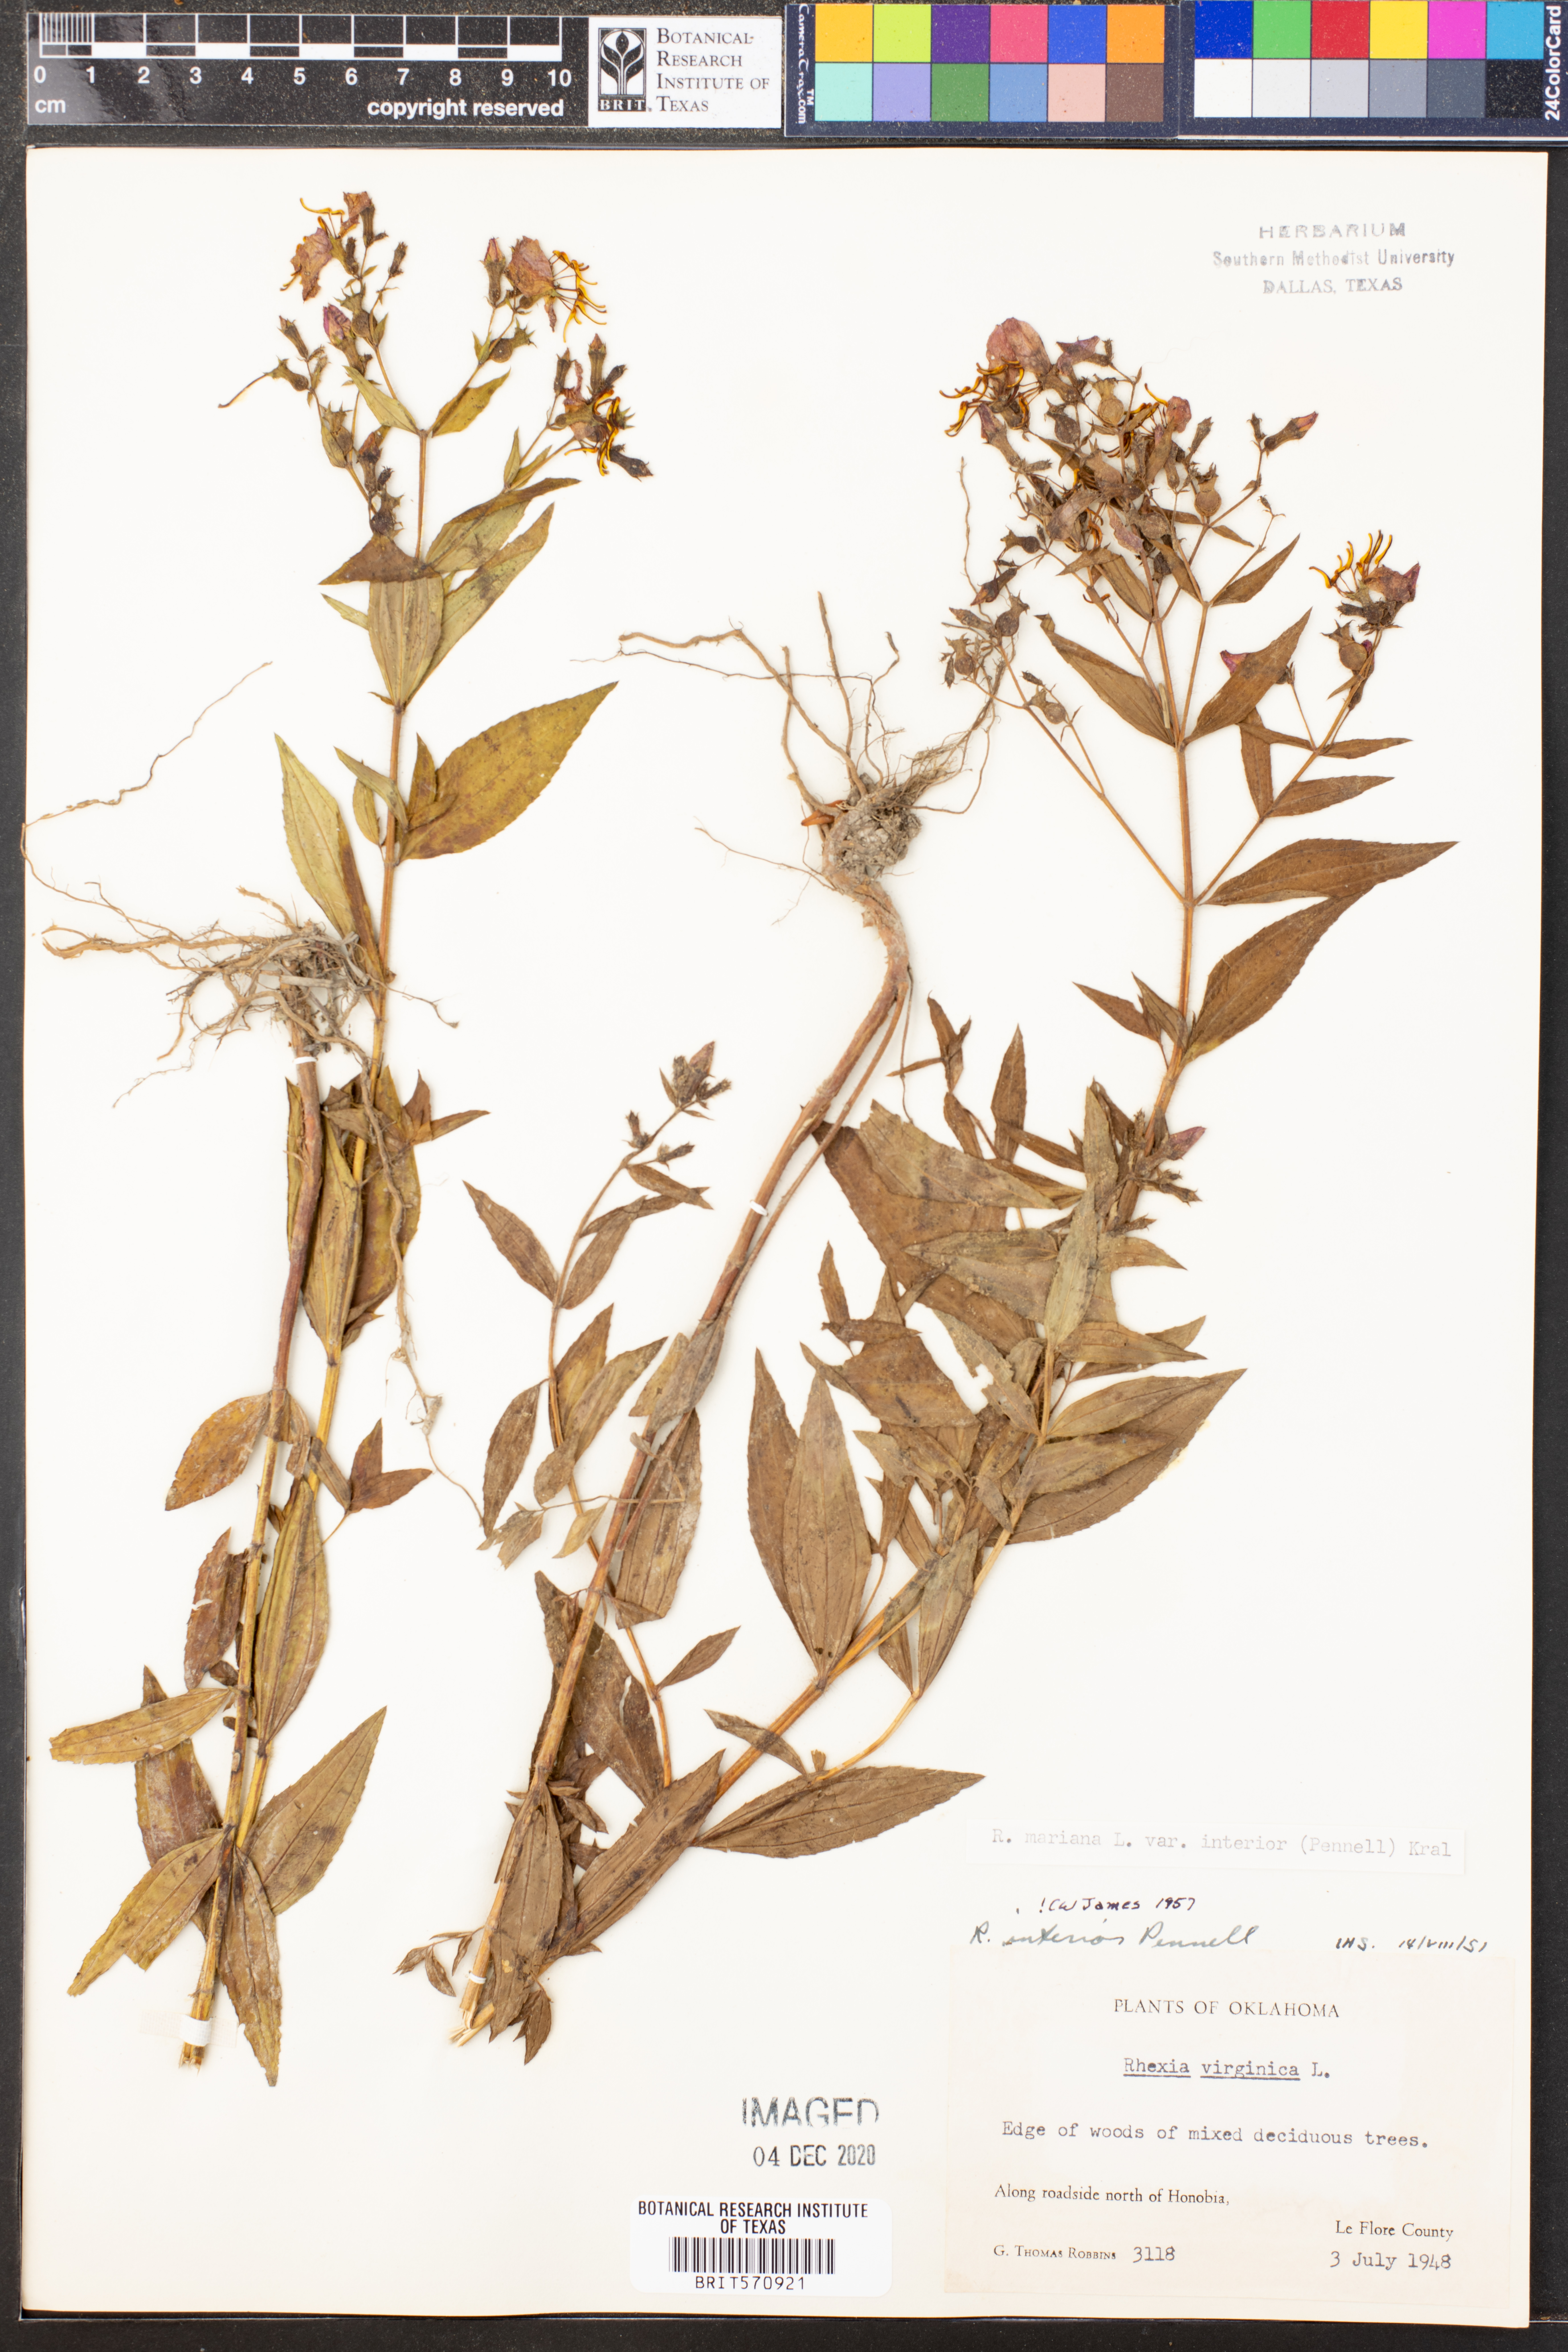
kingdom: Plantae
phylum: Tracheophyta
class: Magnoliopsida
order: Myrtales
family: Melastomataceae
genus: Rhexia
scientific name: Rhexia interior
